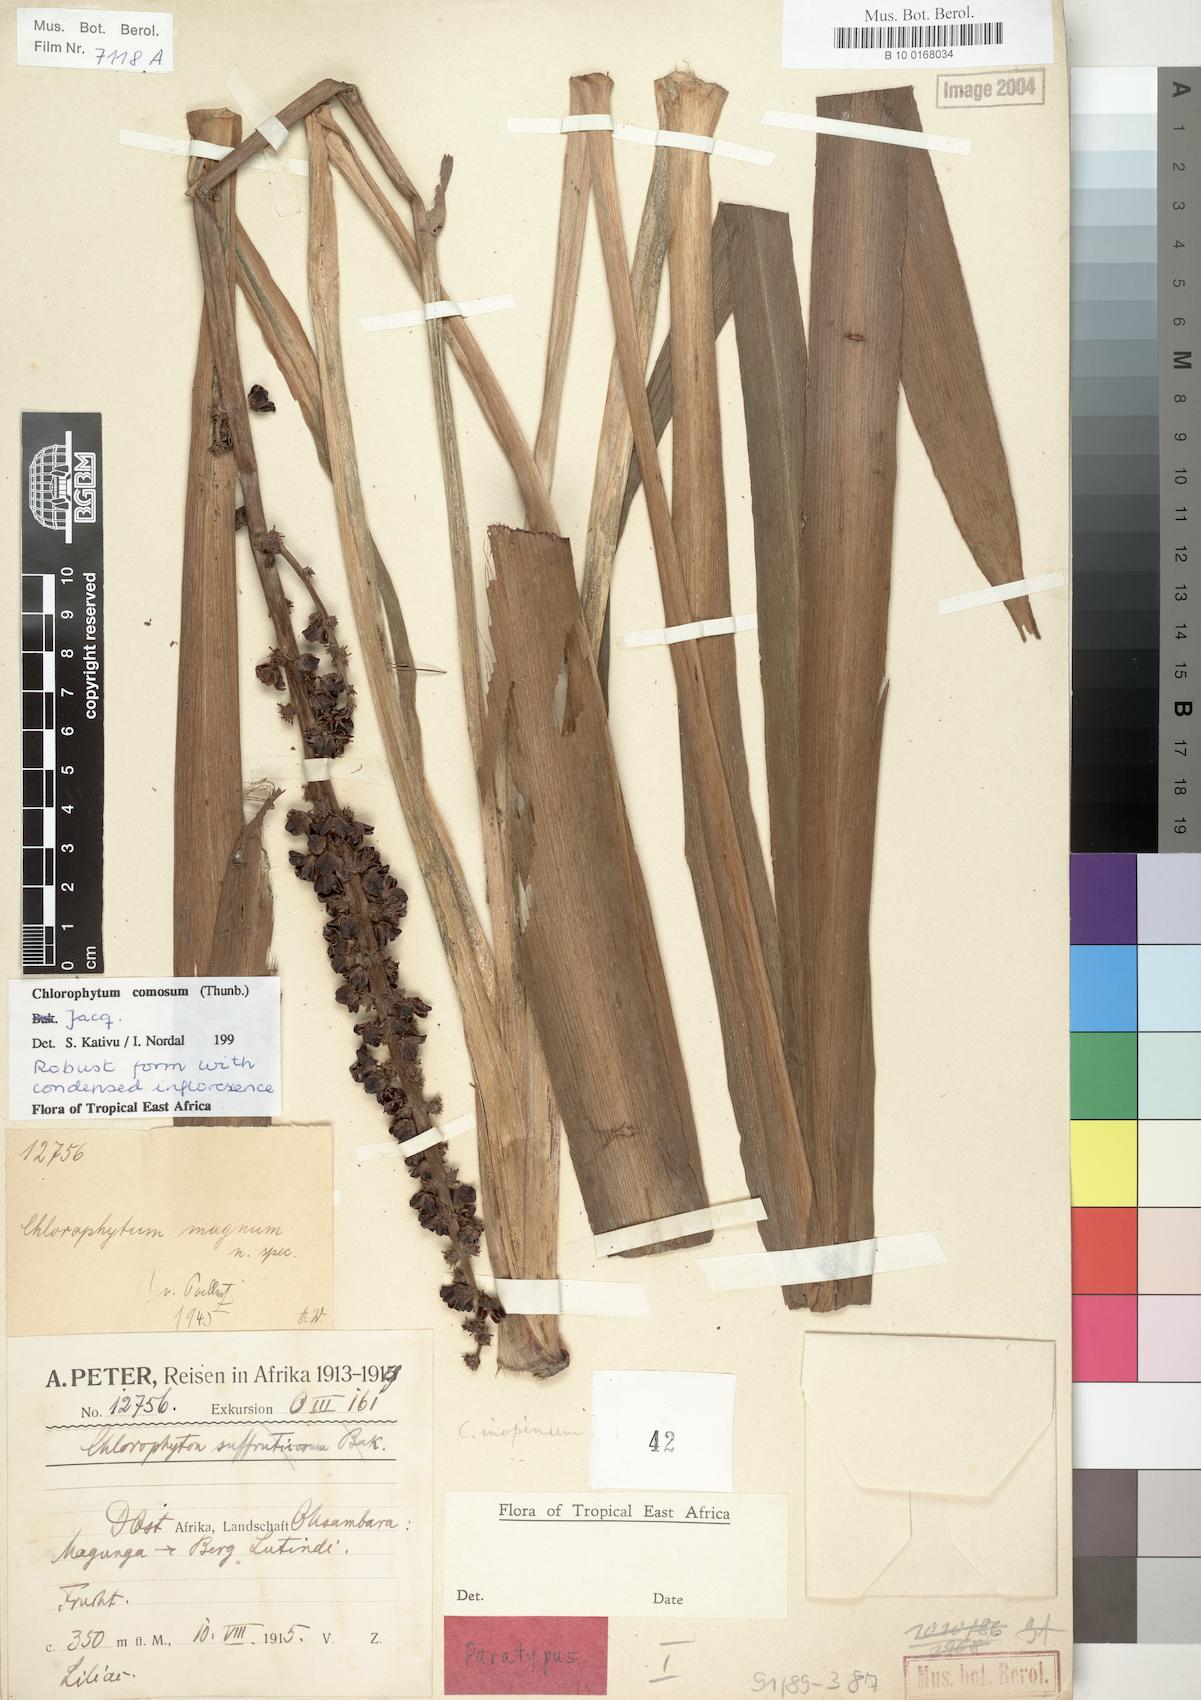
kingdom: Plantae
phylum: Tracheophyta
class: Liliopsida
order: Asparagales
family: Asparagaceae
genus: Chlorophytum
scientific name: Chlorophytum comosum
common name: Spider plant
